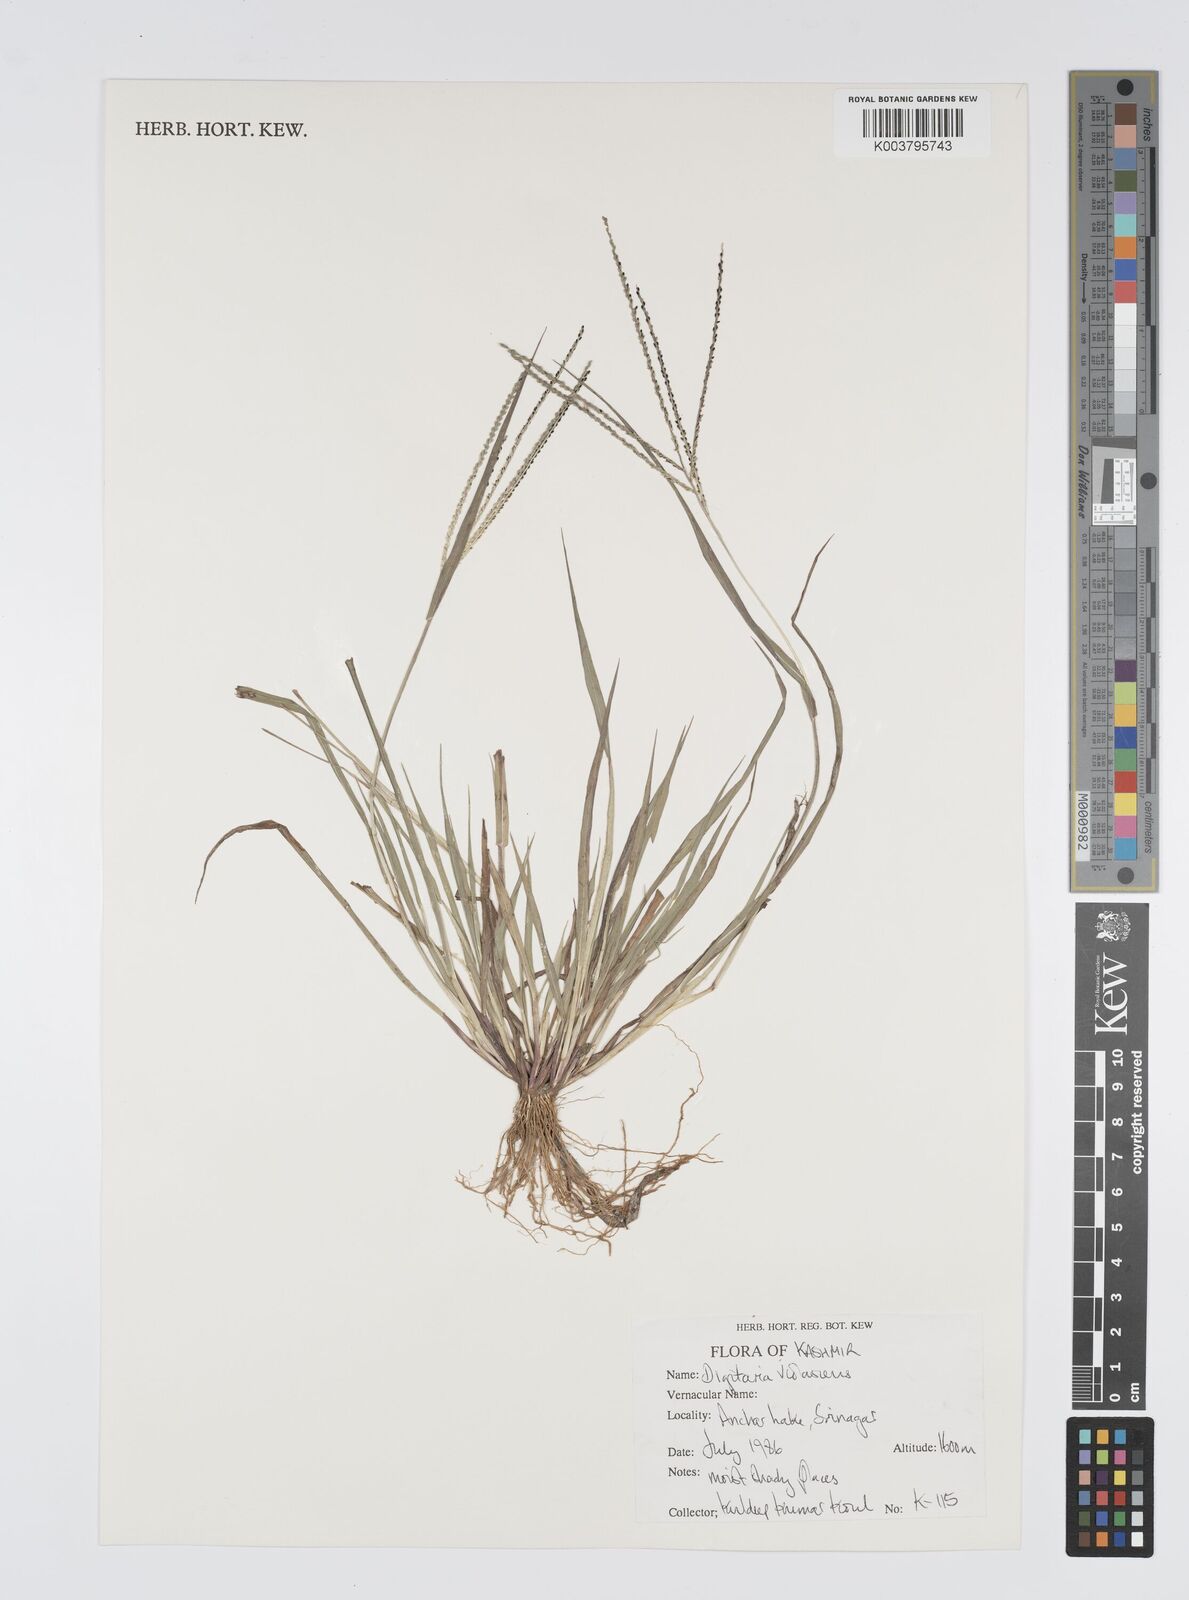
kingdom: Plantae
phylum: Tracheophyta
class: Liliopsida
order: Poales
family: Poaceae
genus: Digitaria
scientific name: Digitaria violascens
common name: Violet crabgrass
